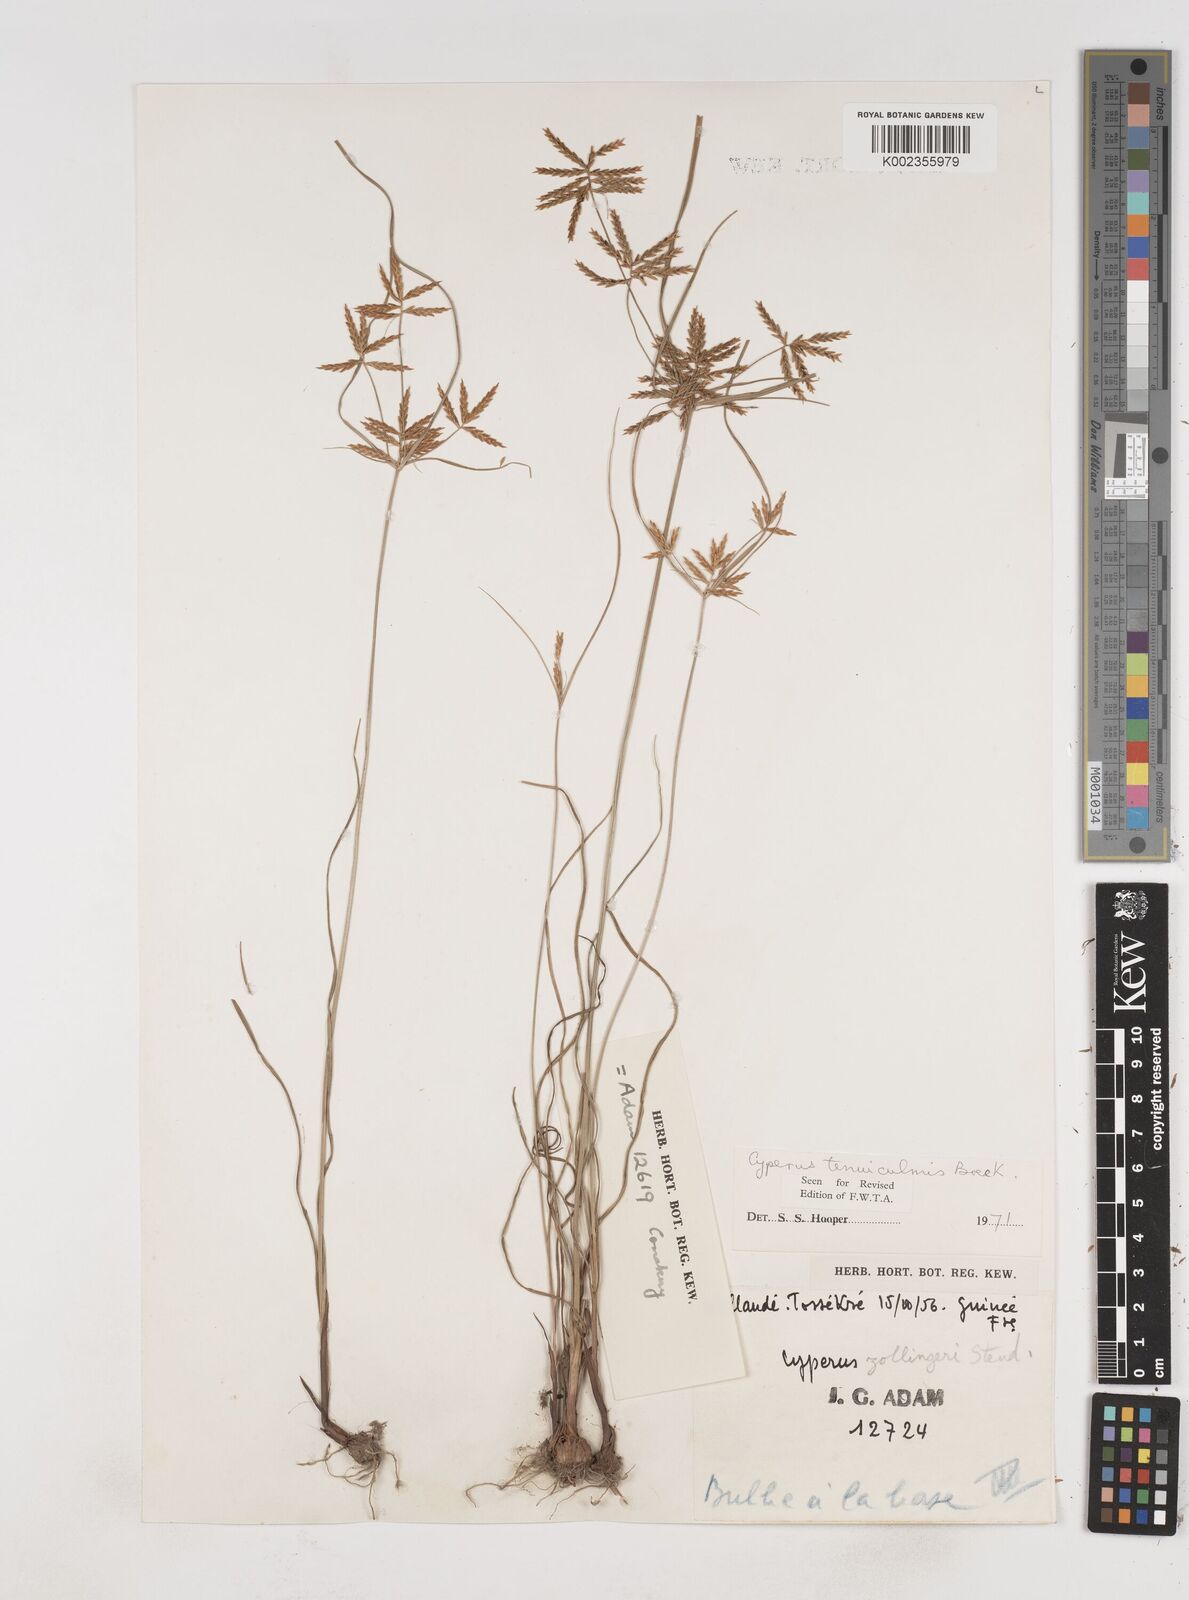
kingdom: Plantae
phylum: Tracheophyta
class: Liliopsida
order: Poales
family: Cyperaceae
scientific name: Cyperaceae
